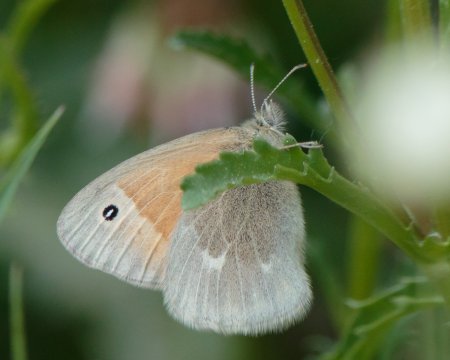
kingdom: Animalia
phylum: Arthropoda
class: Insecta
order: Lepidoptera
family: Nymphalidae
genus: Coenonympha
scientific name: Coenonympha tullia
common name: Large Heath
